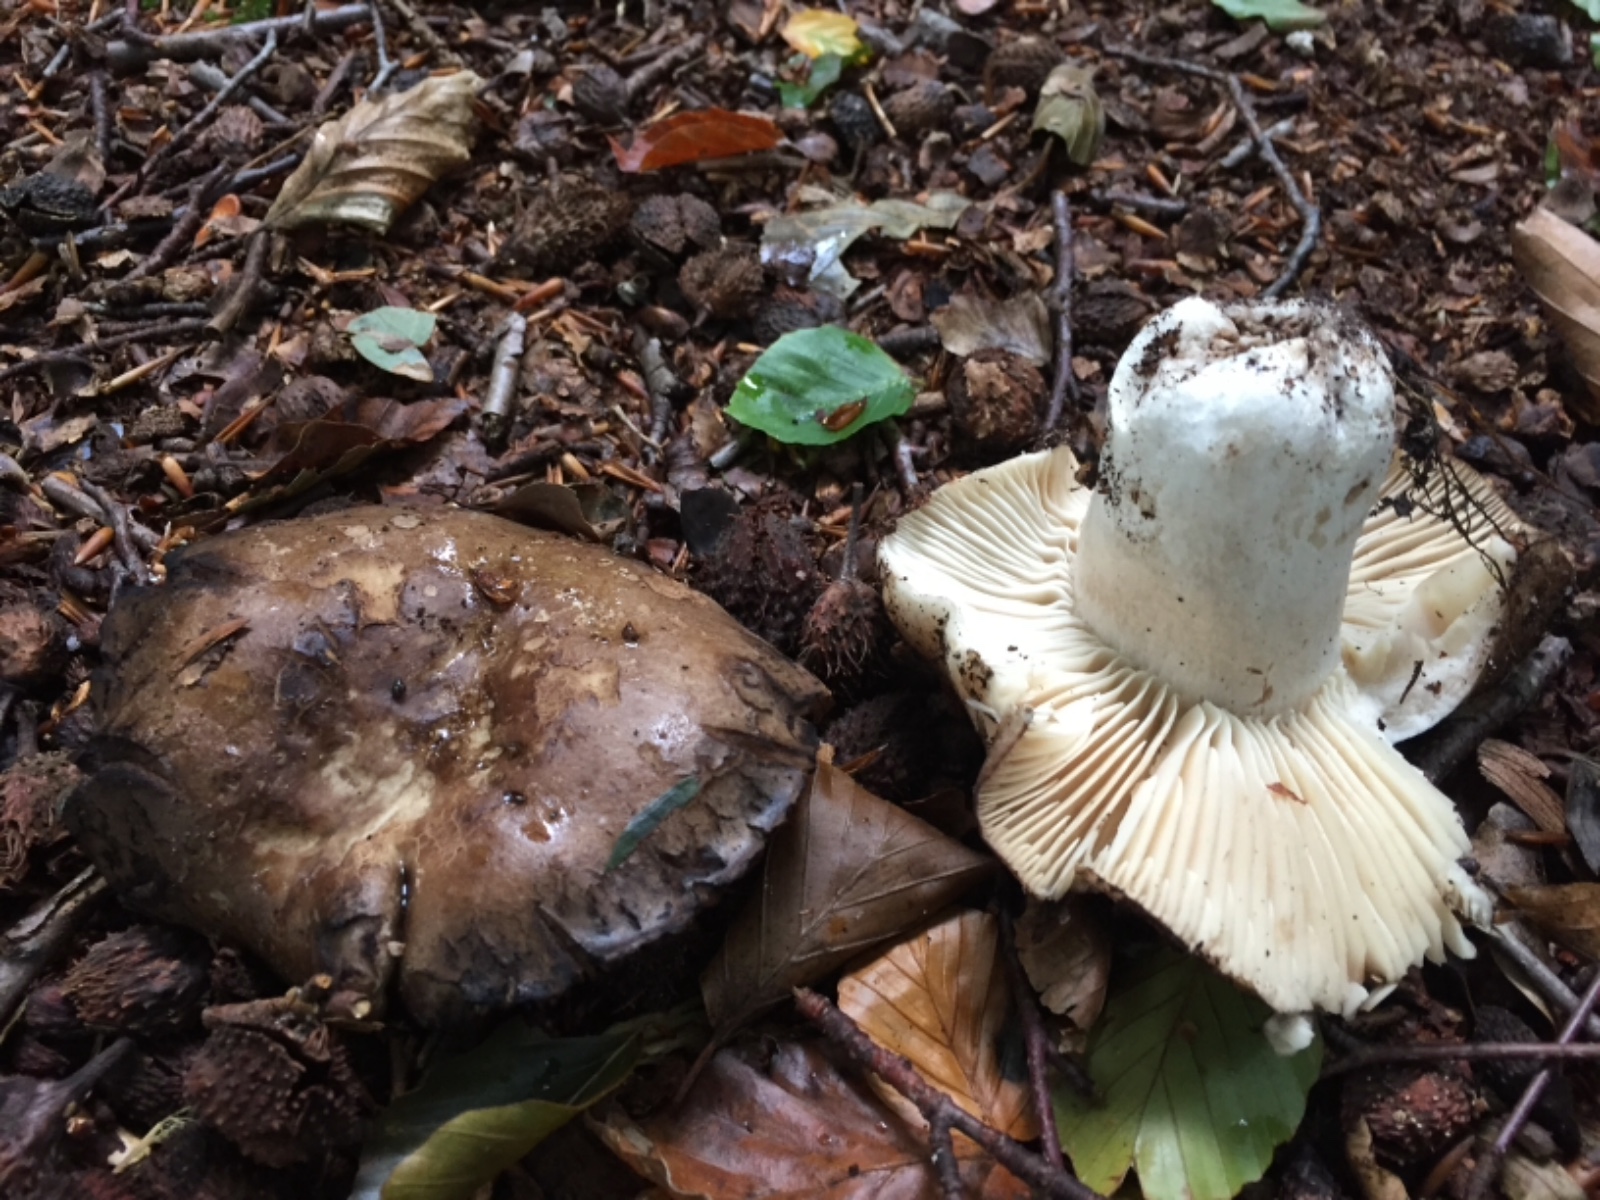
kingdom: Fungi
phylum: Basidiomycota
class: Agaricomycetes
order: Russulales
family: Russulaceae
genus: Russula
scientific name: Russula adusta
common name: sværtende skørhat
